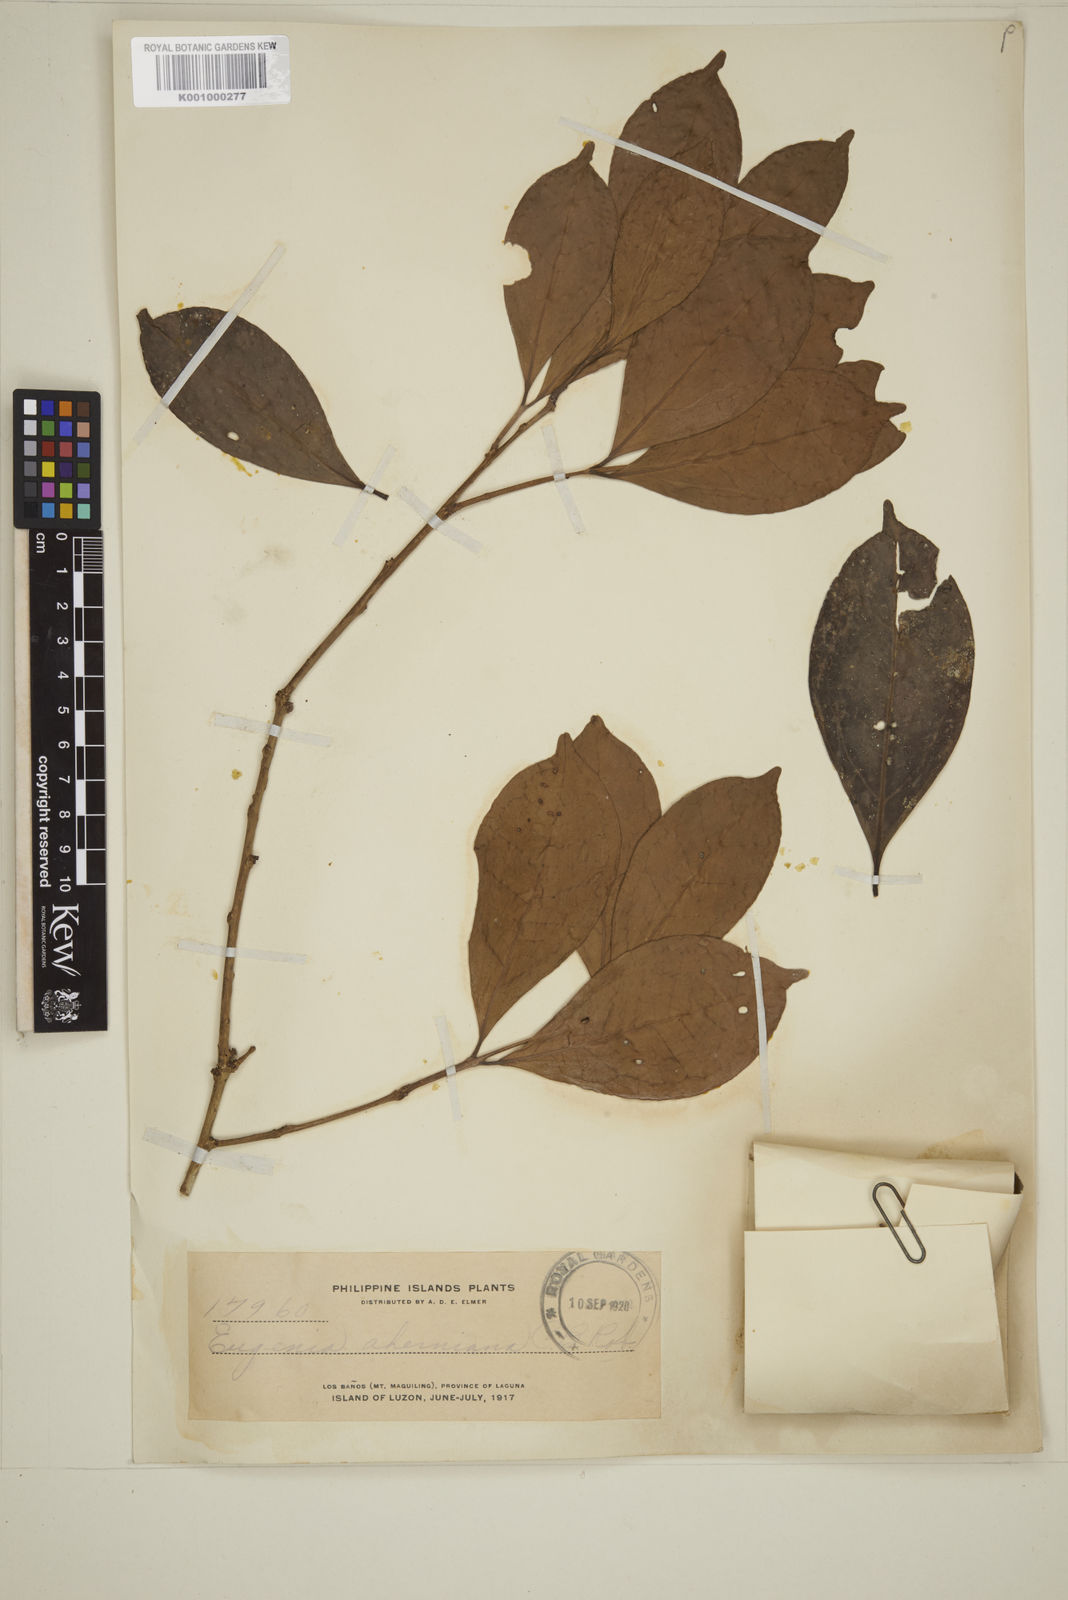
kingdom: Plantae
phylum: Tracheophyta
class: Magnoliopsida
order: Myrtales
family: Myrtaceae
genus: Eugenia
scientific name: Eugenia aherniana
